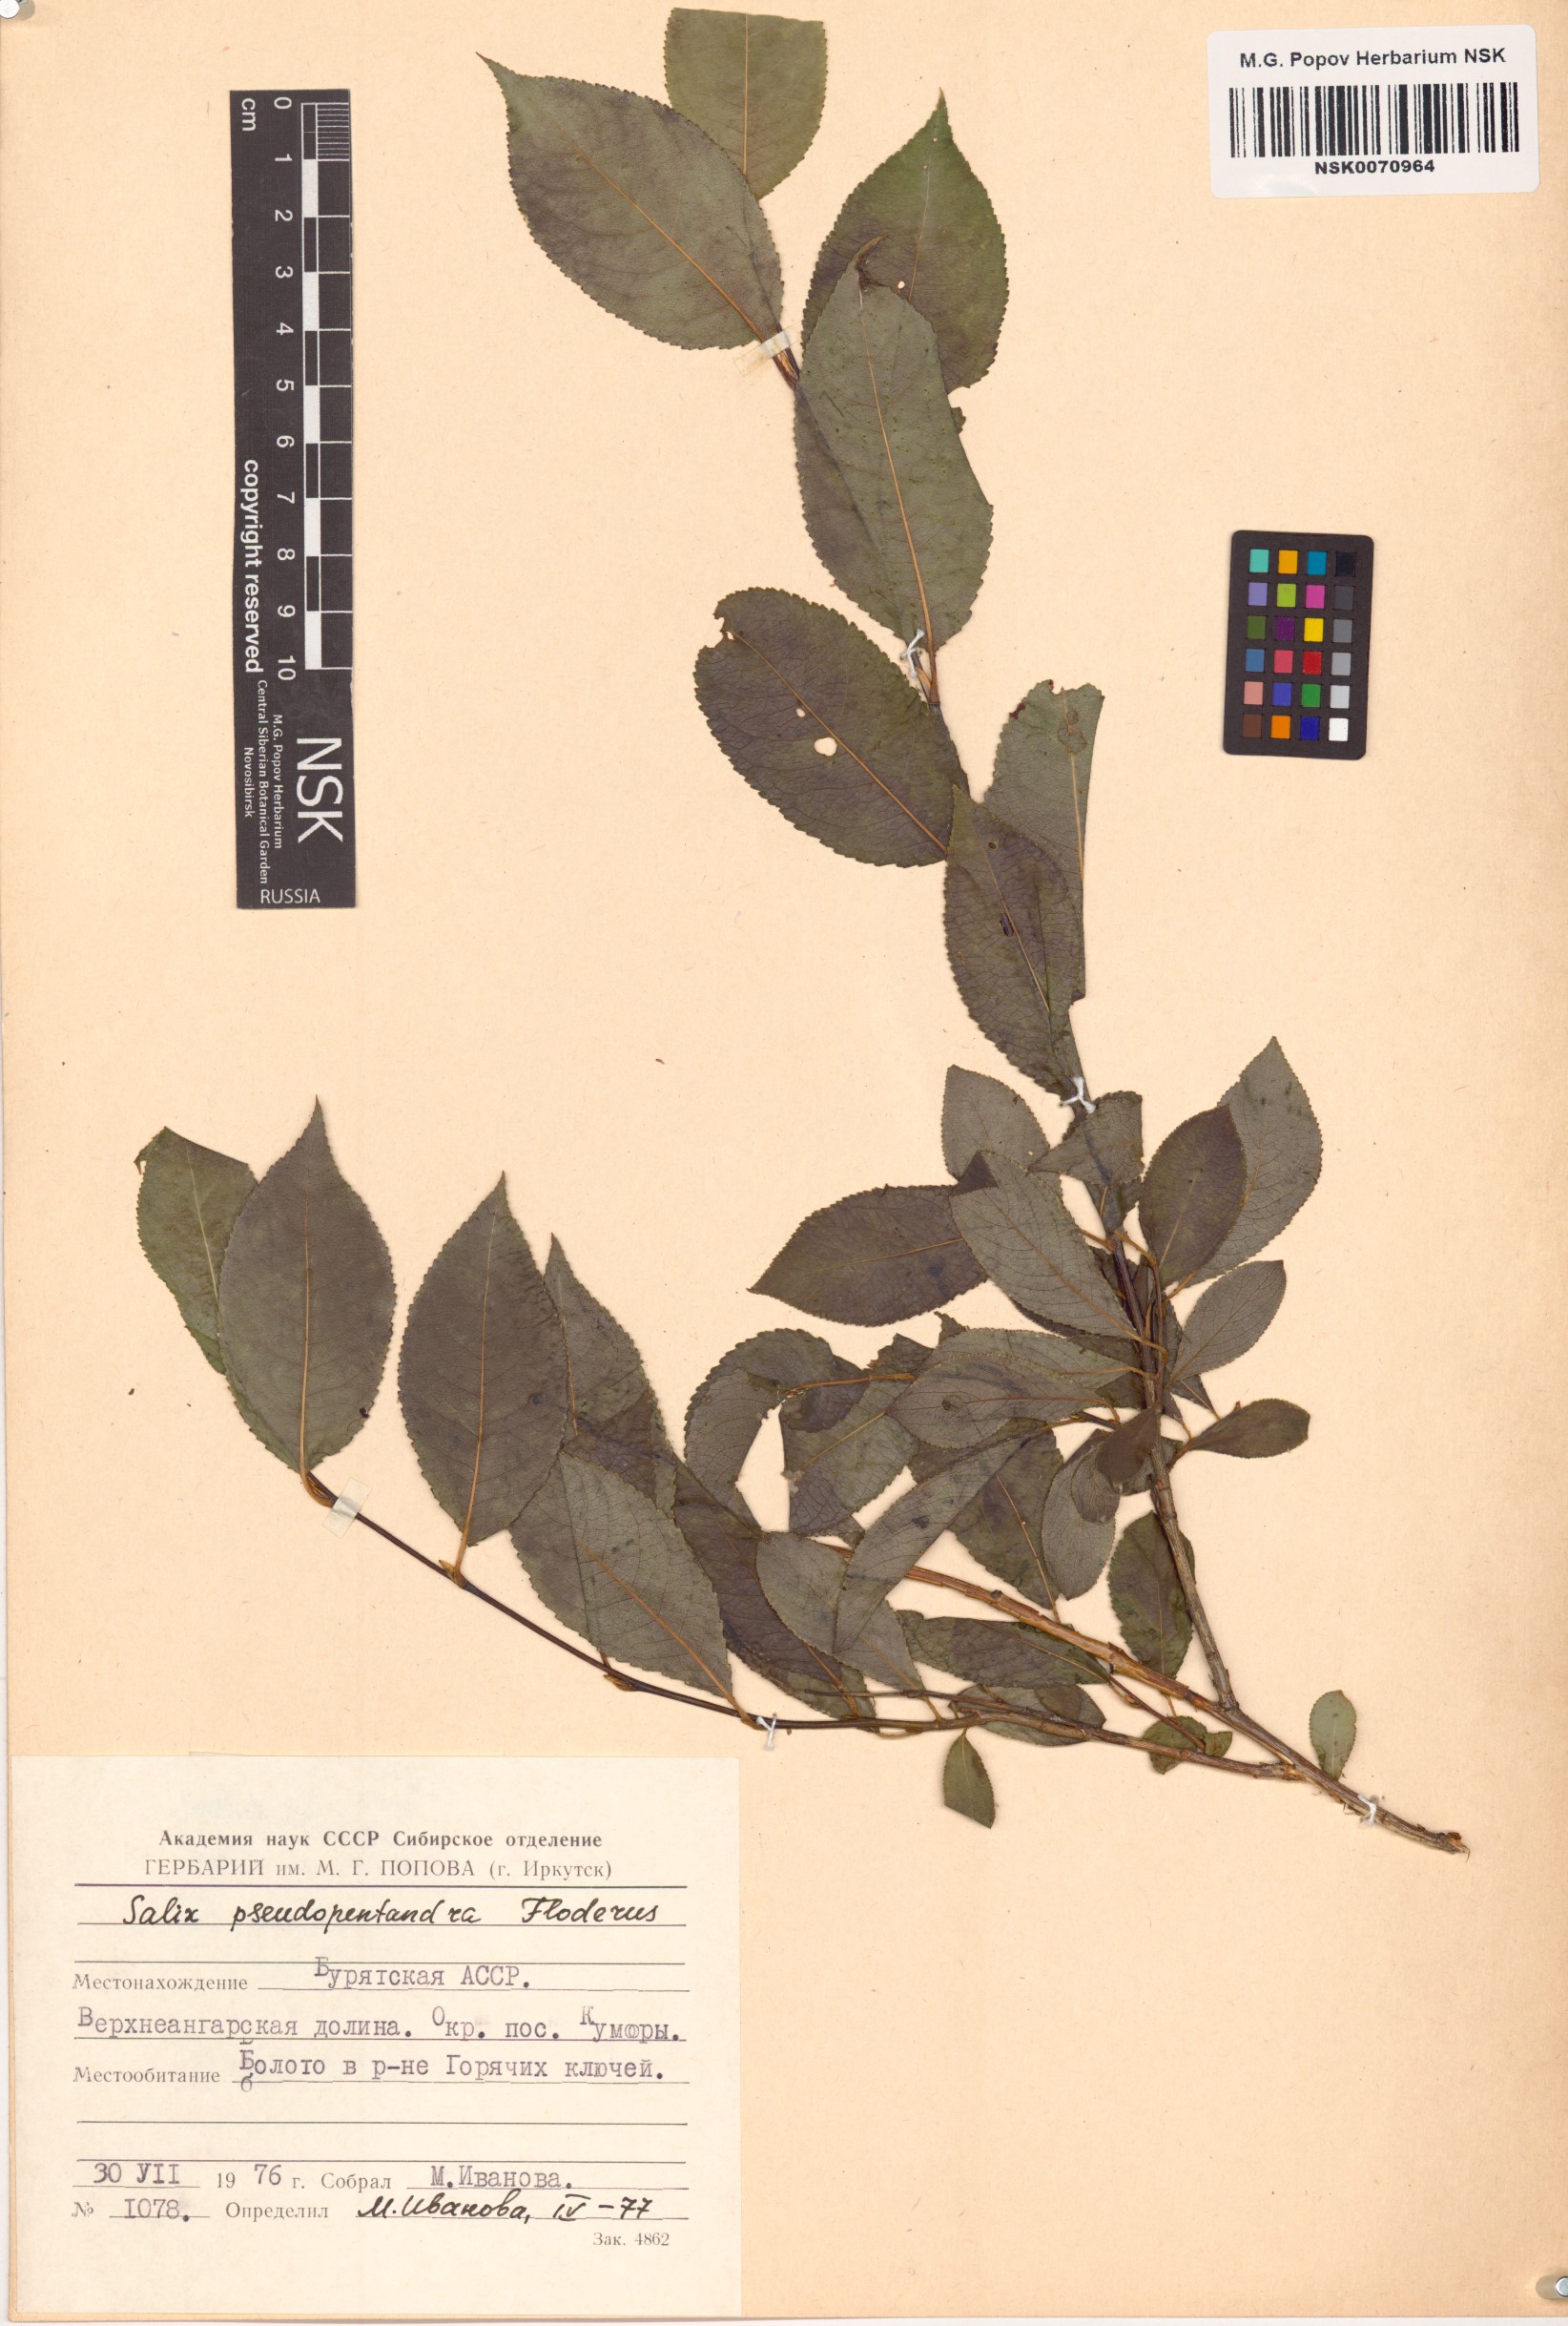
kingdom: Plantae
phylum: Tracheophyta
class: Magnoliopsida
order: Malpighiales
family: Salicaceae
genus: Salix
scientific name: Salix pseudopentandra
